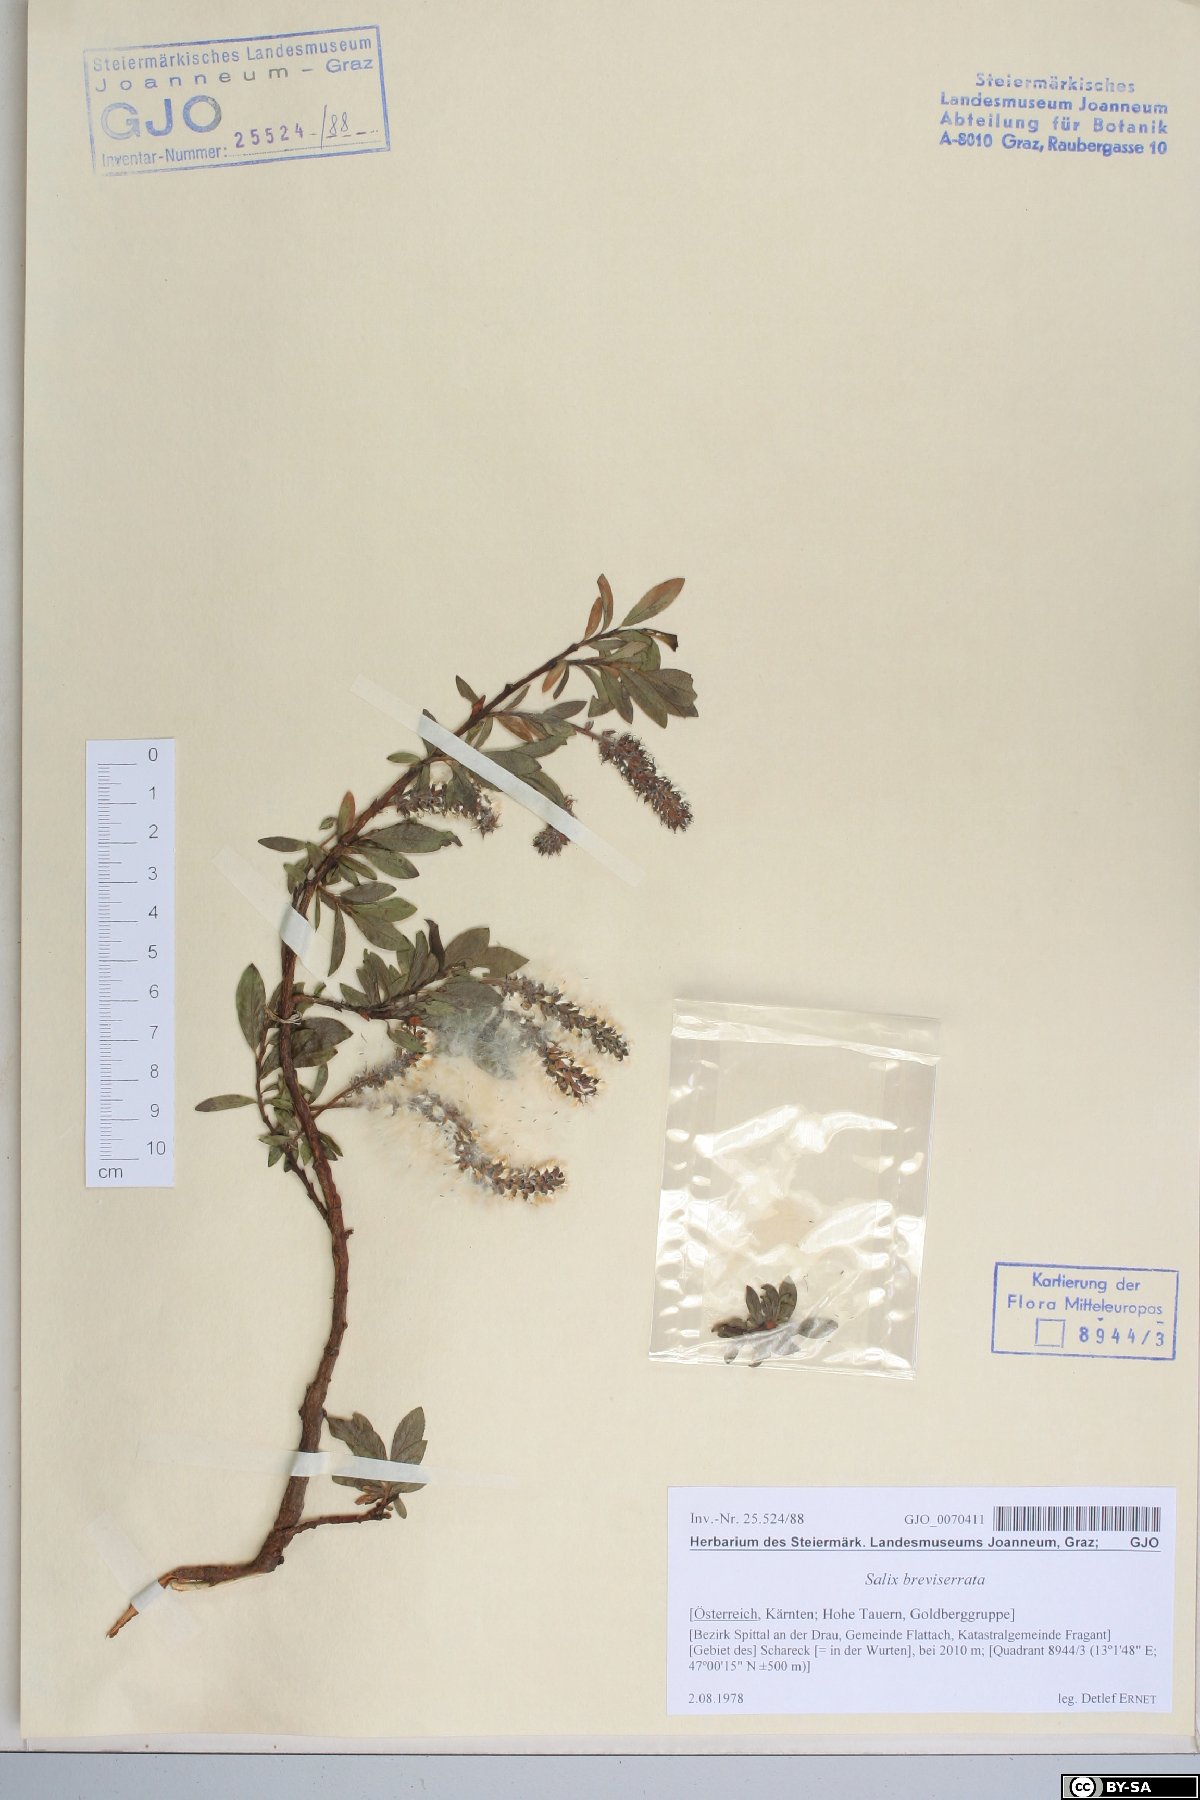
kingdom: Plantae
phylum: Tracheophyta
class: Magnoliopsida
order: Malpighiales
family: Salicaceae
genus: Salix
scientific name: Salix breviserrata
